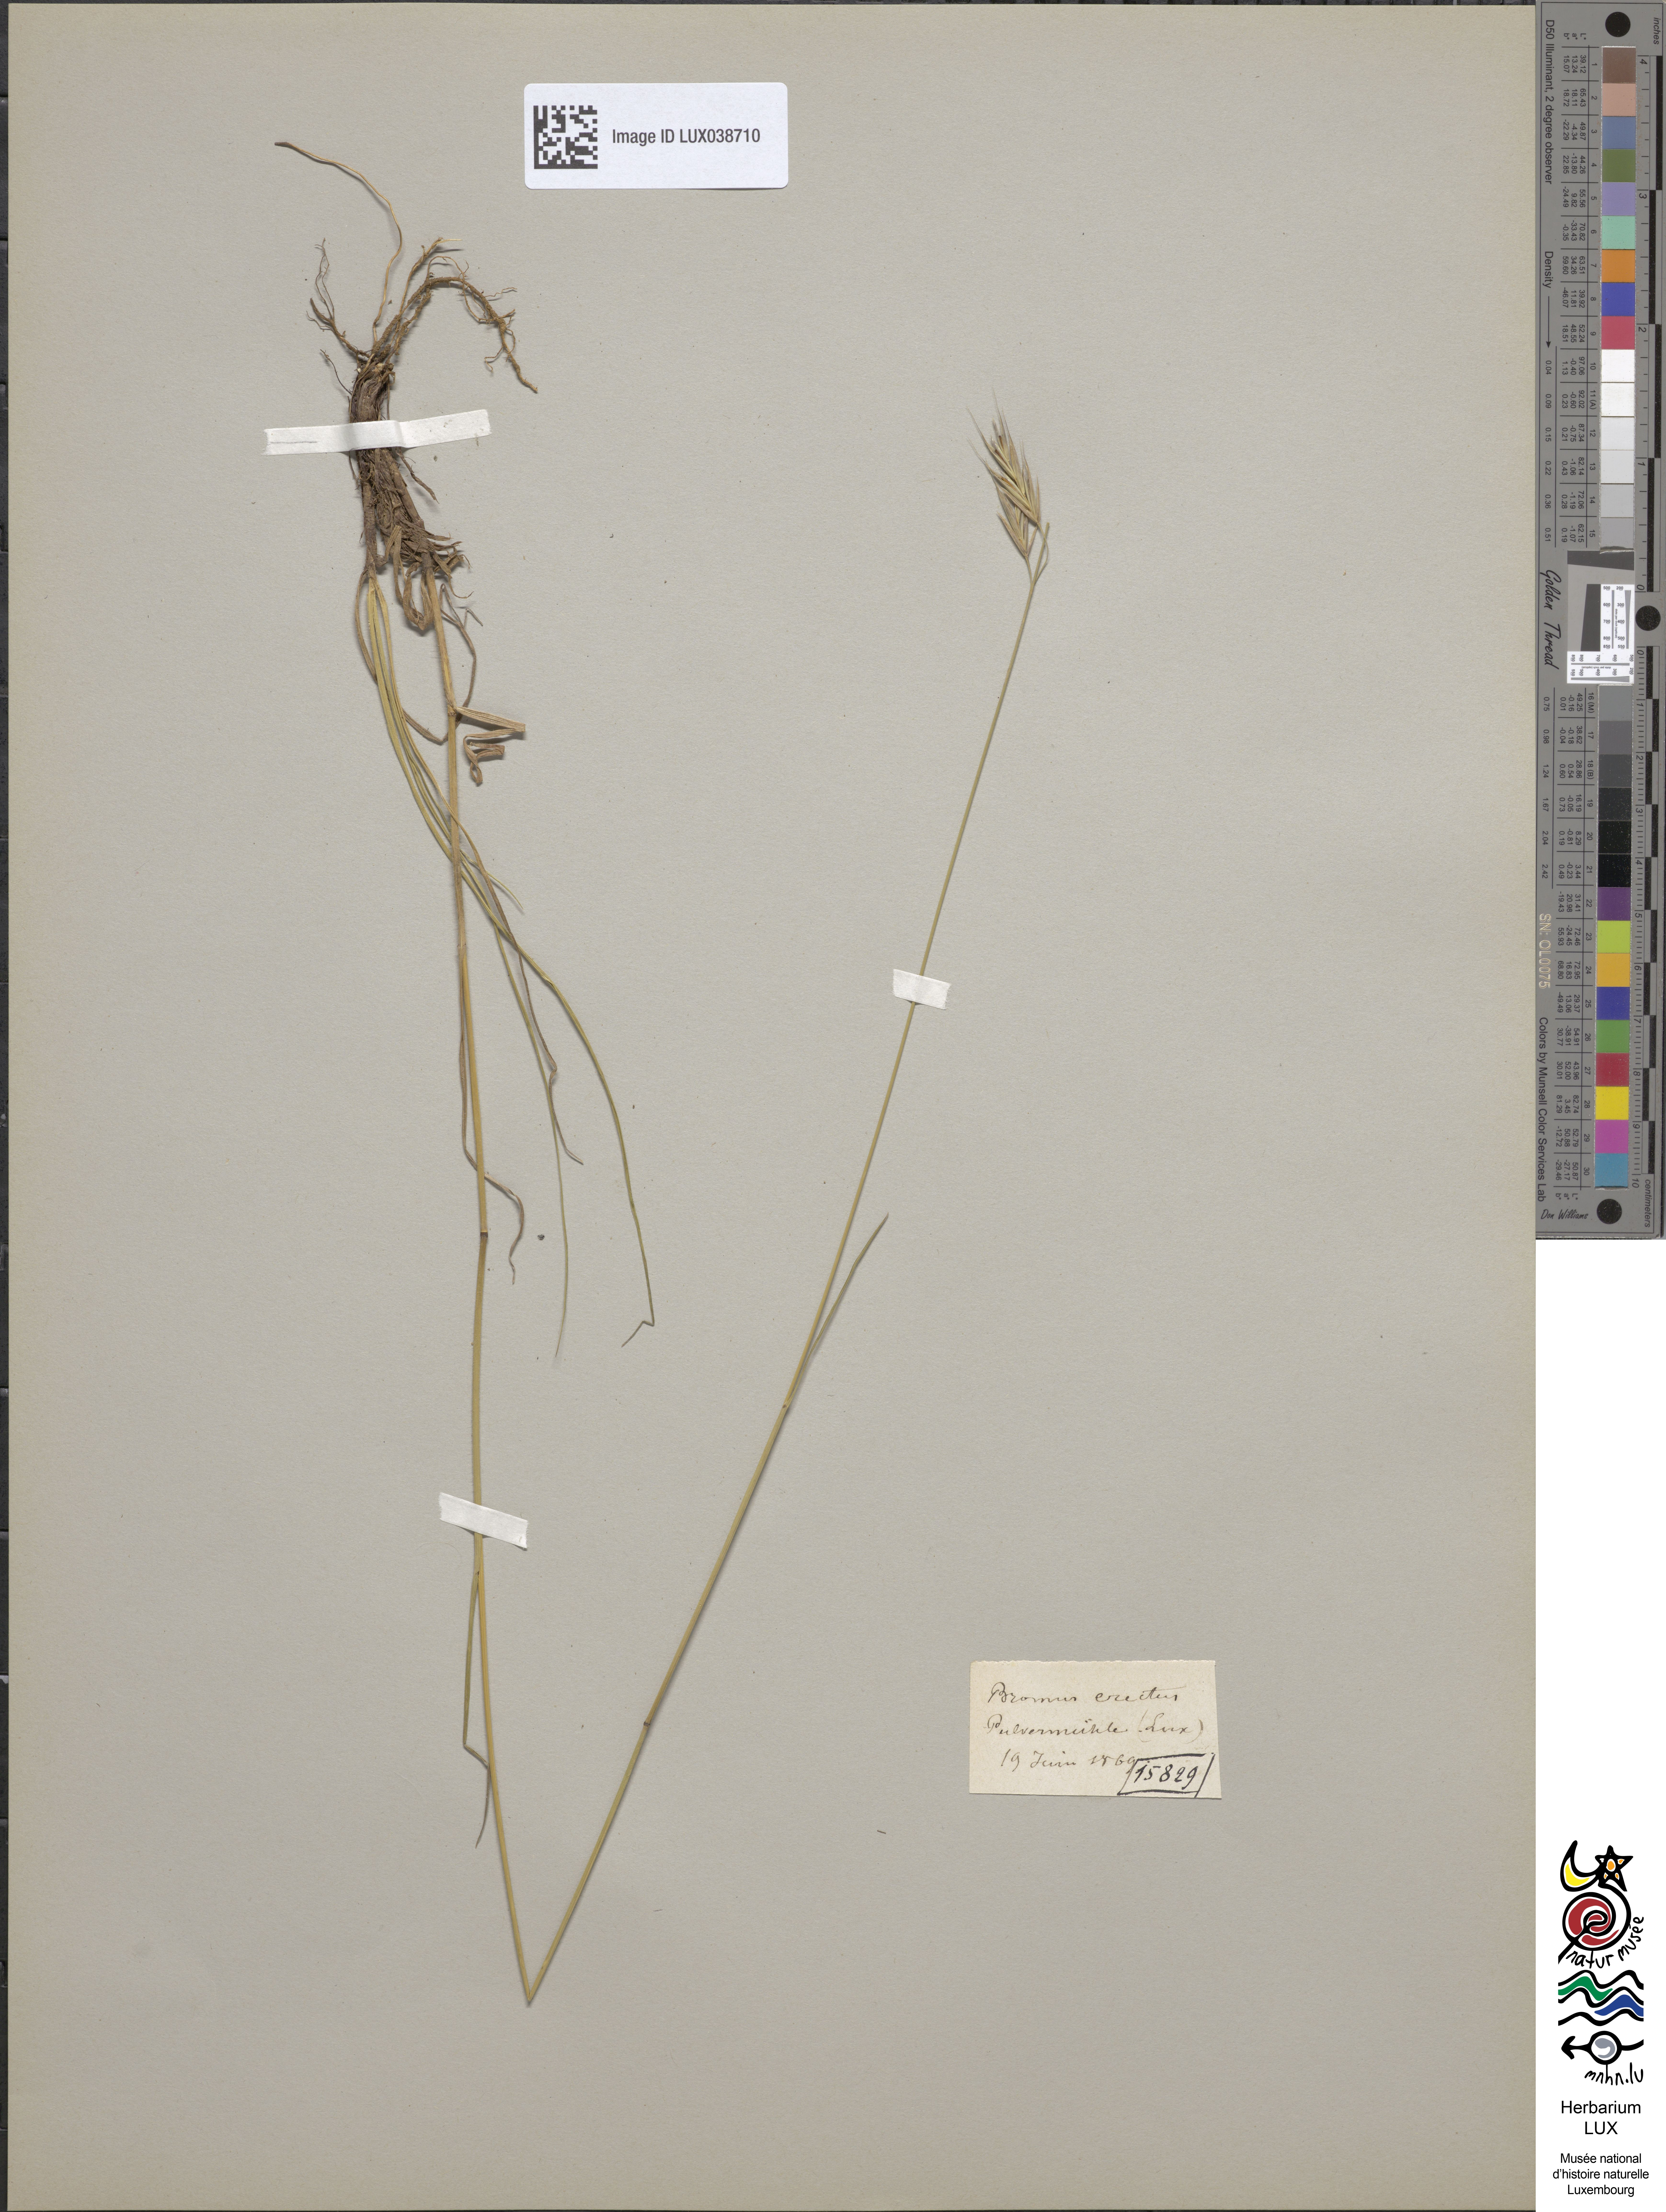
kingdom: Plantae
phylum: Tracheophyta
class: Liliopsida
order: Poales
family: Poaceae
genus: Bromus
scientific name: Bromus erectus
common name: Erect brome
